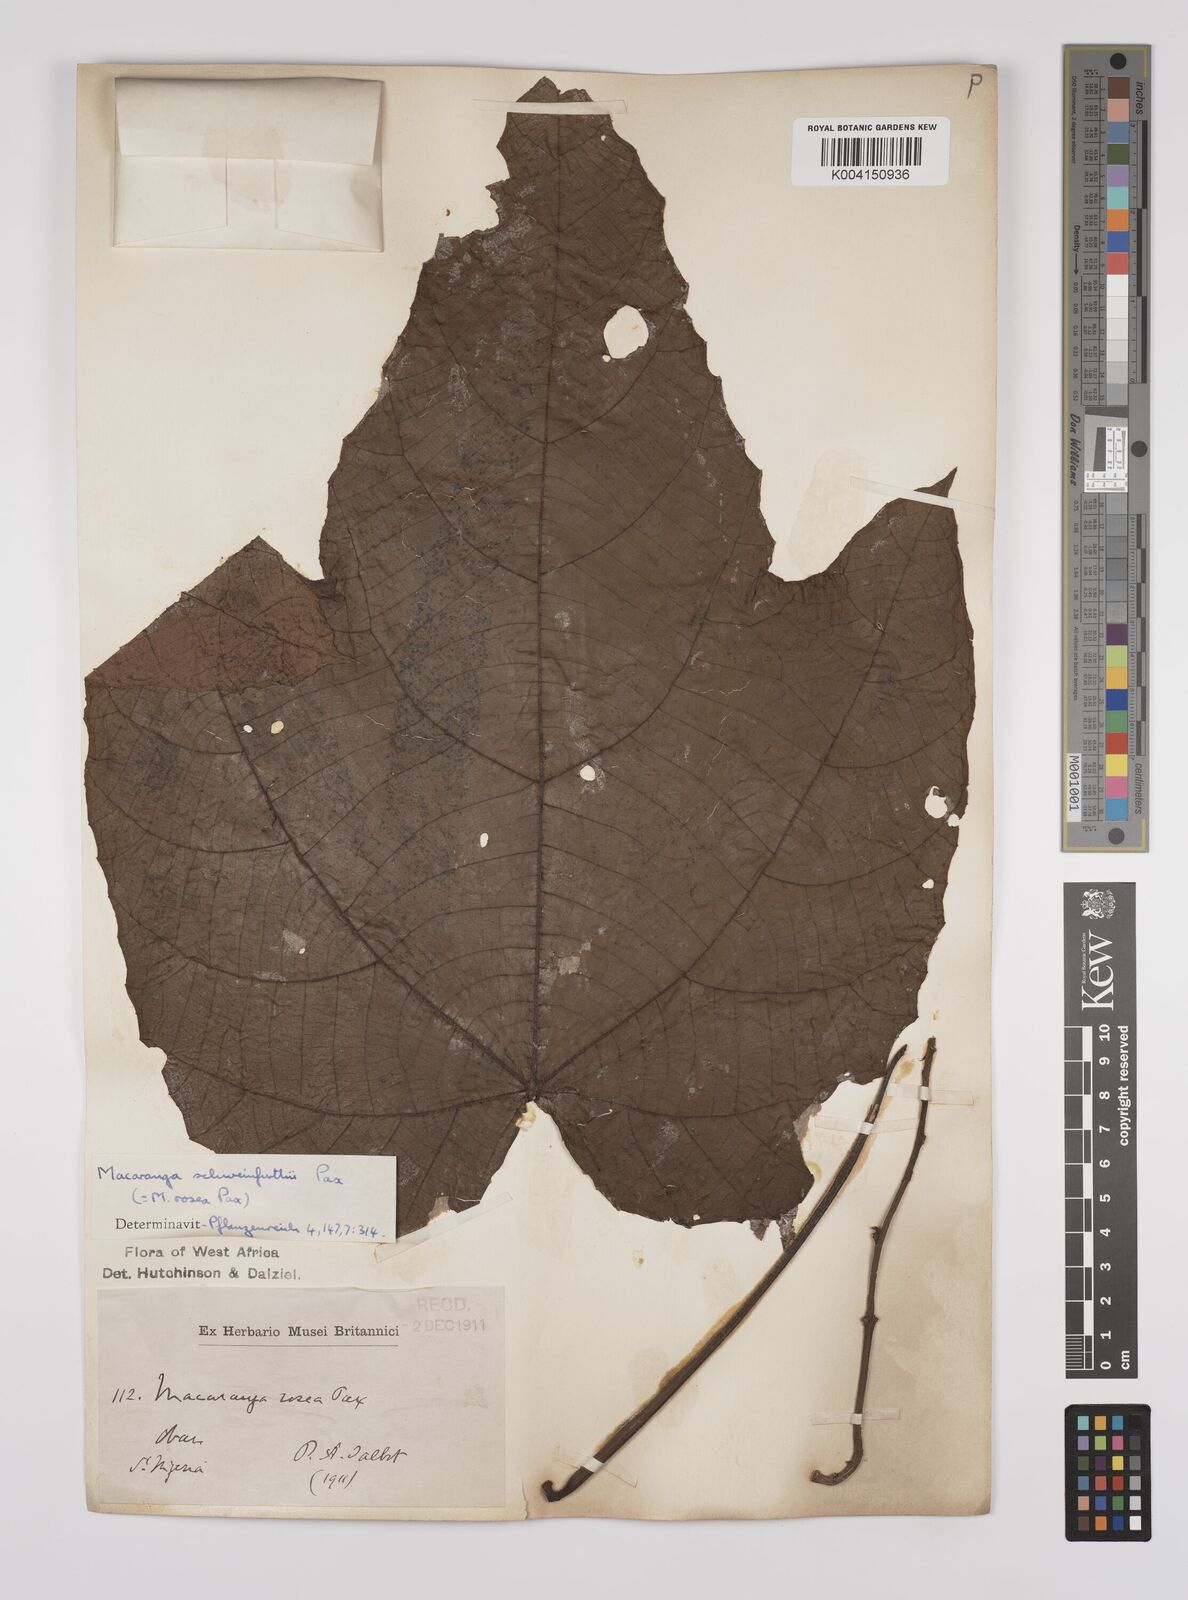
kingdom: Plantae
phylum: Tracheophyta
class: Magnoliopsida
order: Malpighiales
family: Euphorbiaceae
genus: Macaranga
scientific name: Macaranga schweinfurthii
